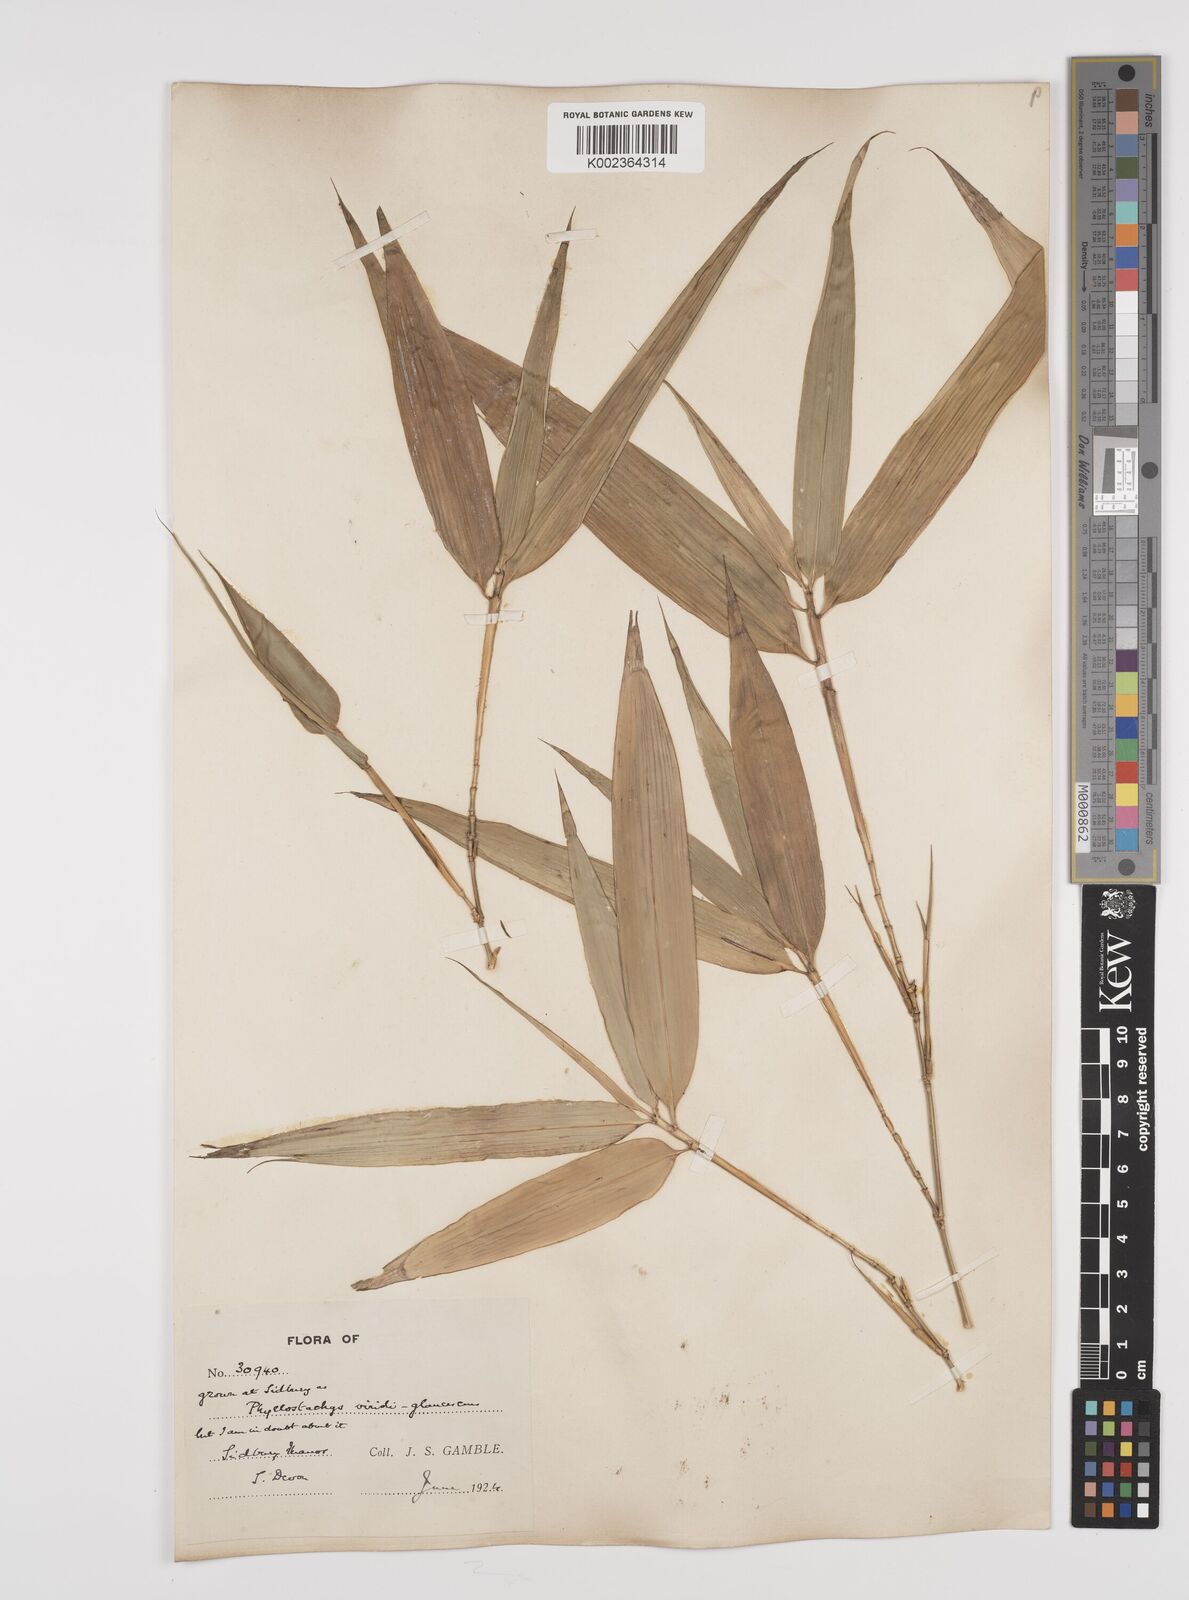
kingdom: Plantae
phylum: Tracheophyta
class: Liliopsida
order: Poales
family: Poaceae
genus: Phyllostachys
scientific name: Phyllostachys
